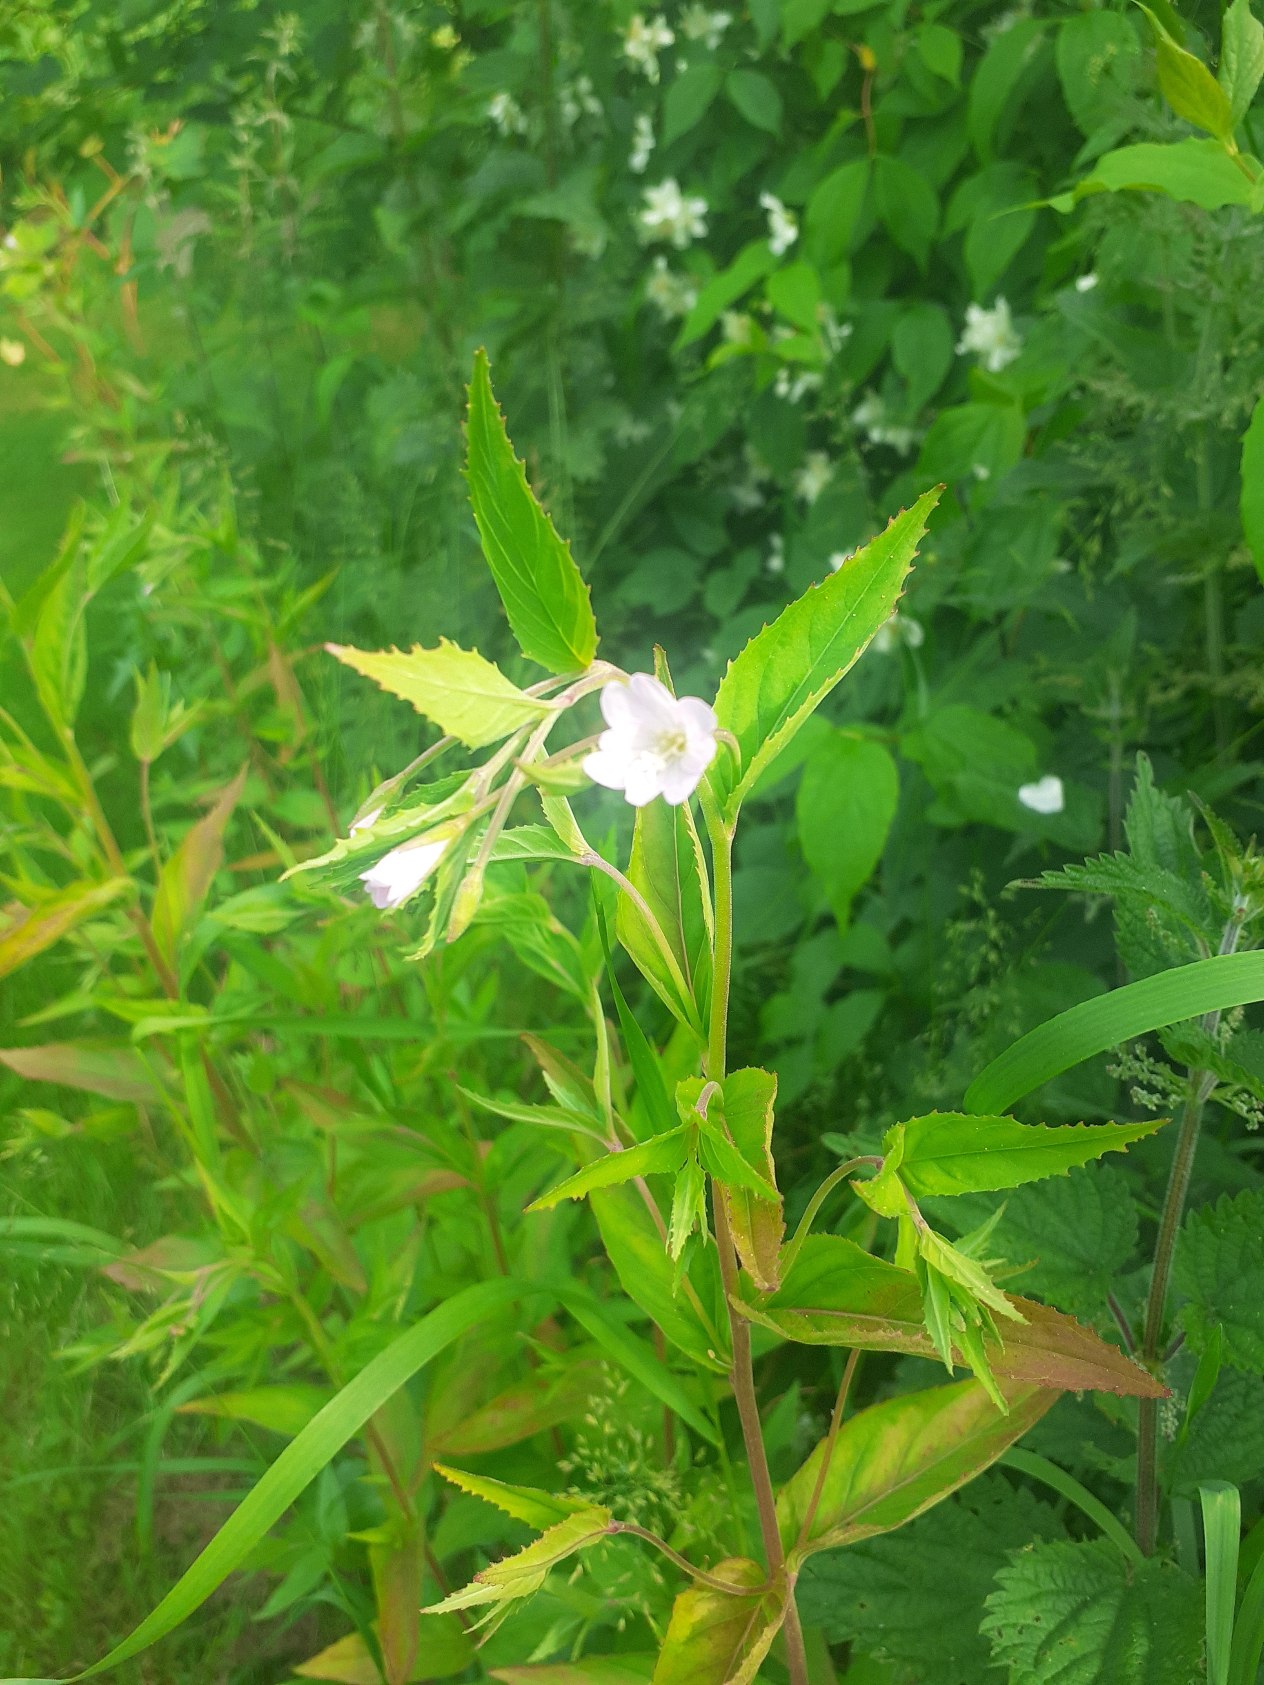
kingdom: Plantae
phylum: Tracheophyta
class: Magnoliopsida
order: Myrtales
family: Onagraceae
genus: Epilobium
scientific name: Epilobium montanum
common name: Glat dueurt
